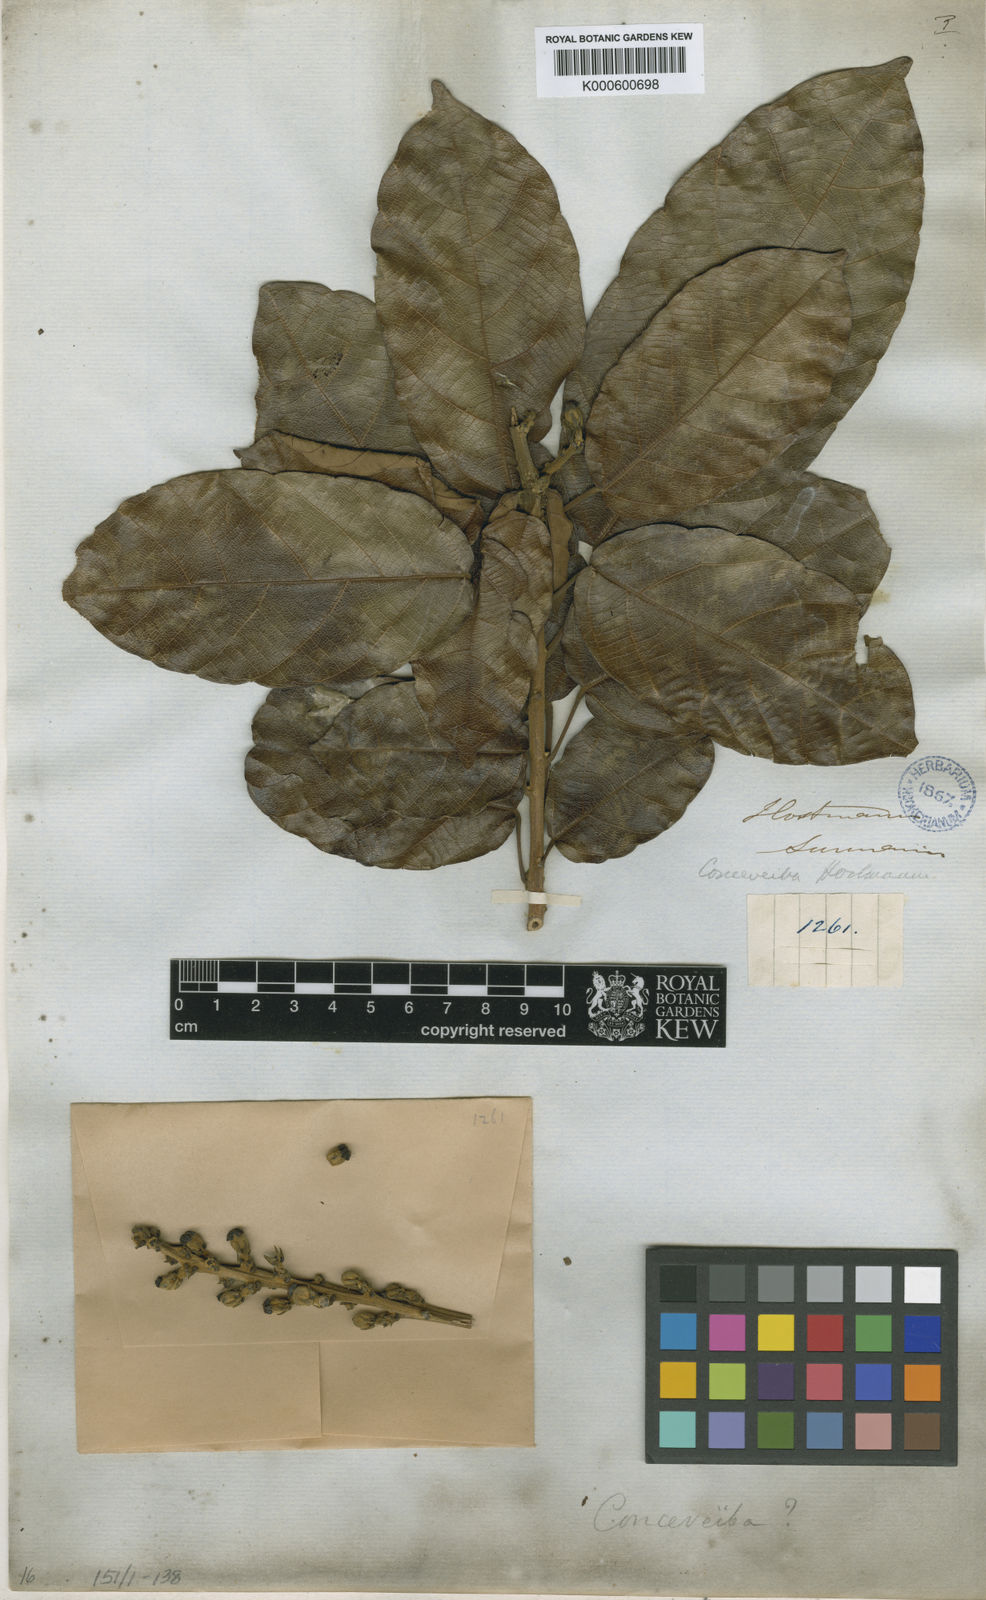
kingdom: Plantae
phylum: Tracheophyta
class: Magnoliopsida
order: Malpighiales
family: Euphorbiaceae
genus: Conceveiba
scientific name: Conceveiba hostmanii
